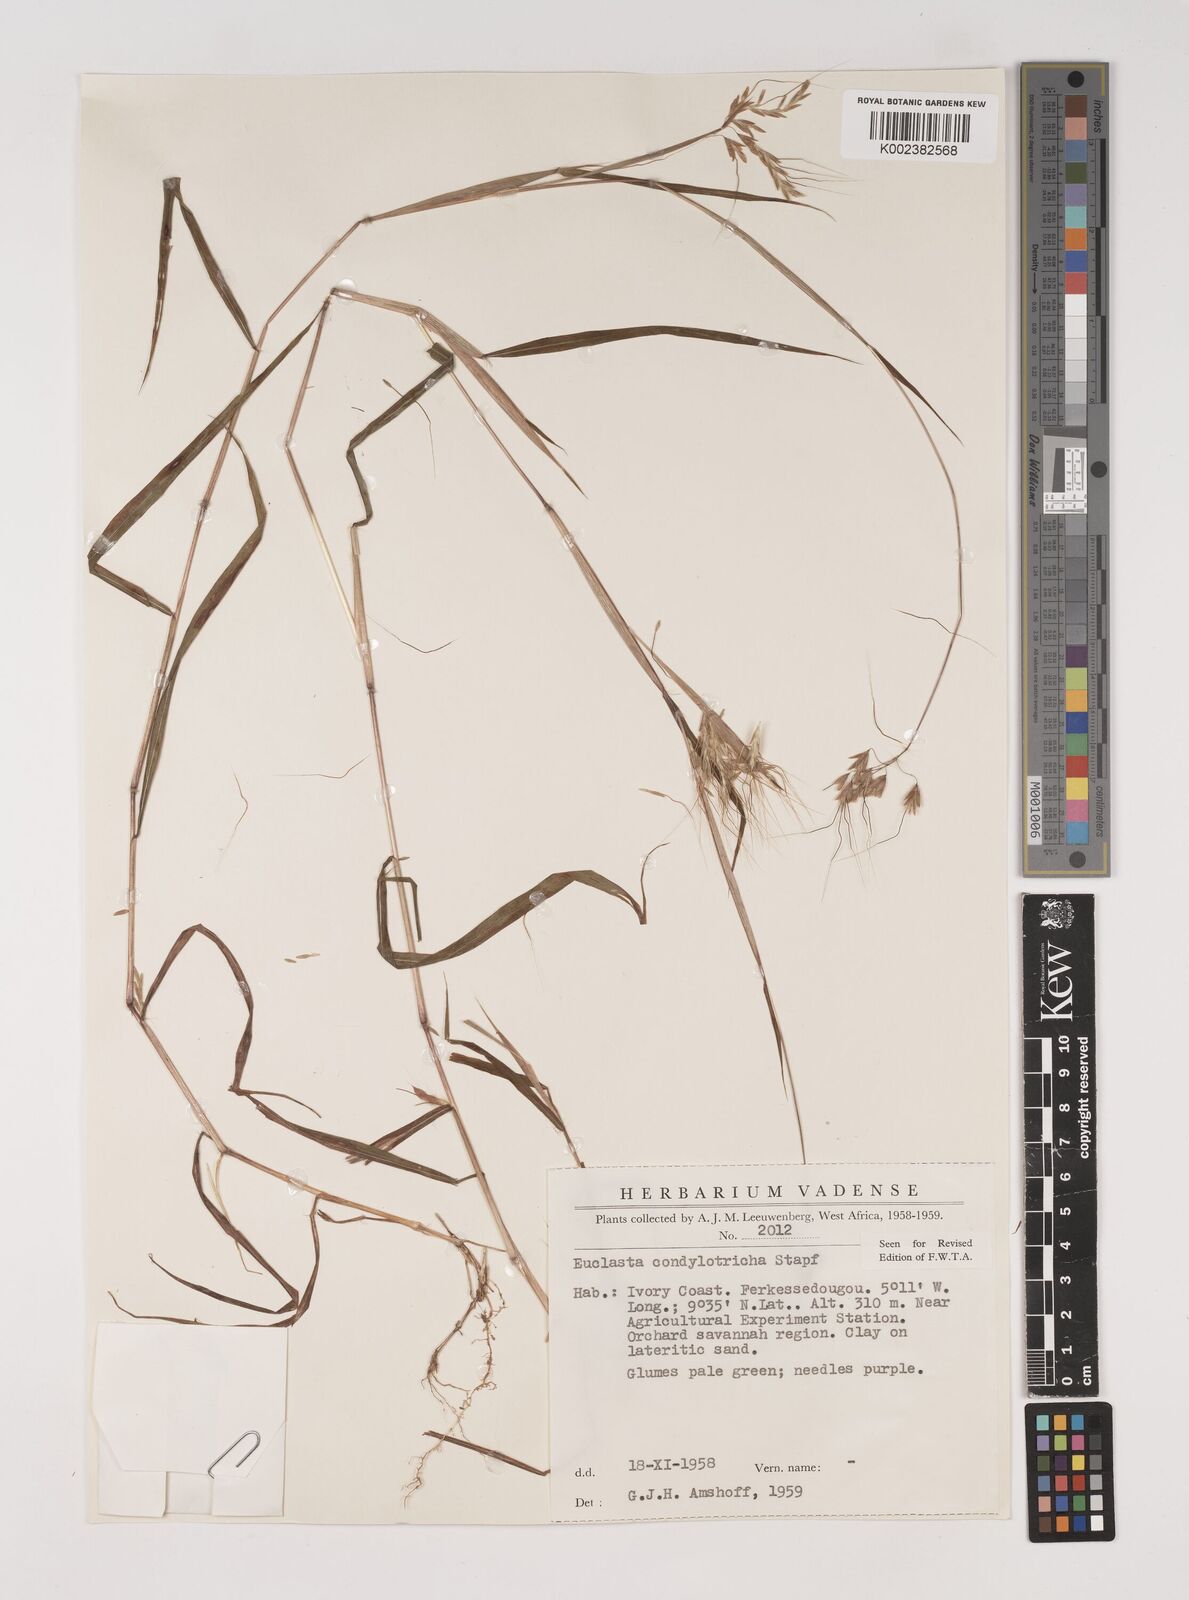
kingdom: Plantae
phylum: Tracheophyta
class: Liliopsida
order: Poales
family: Poaceae
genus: Euclasta
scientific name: Euclasta condylotricha
